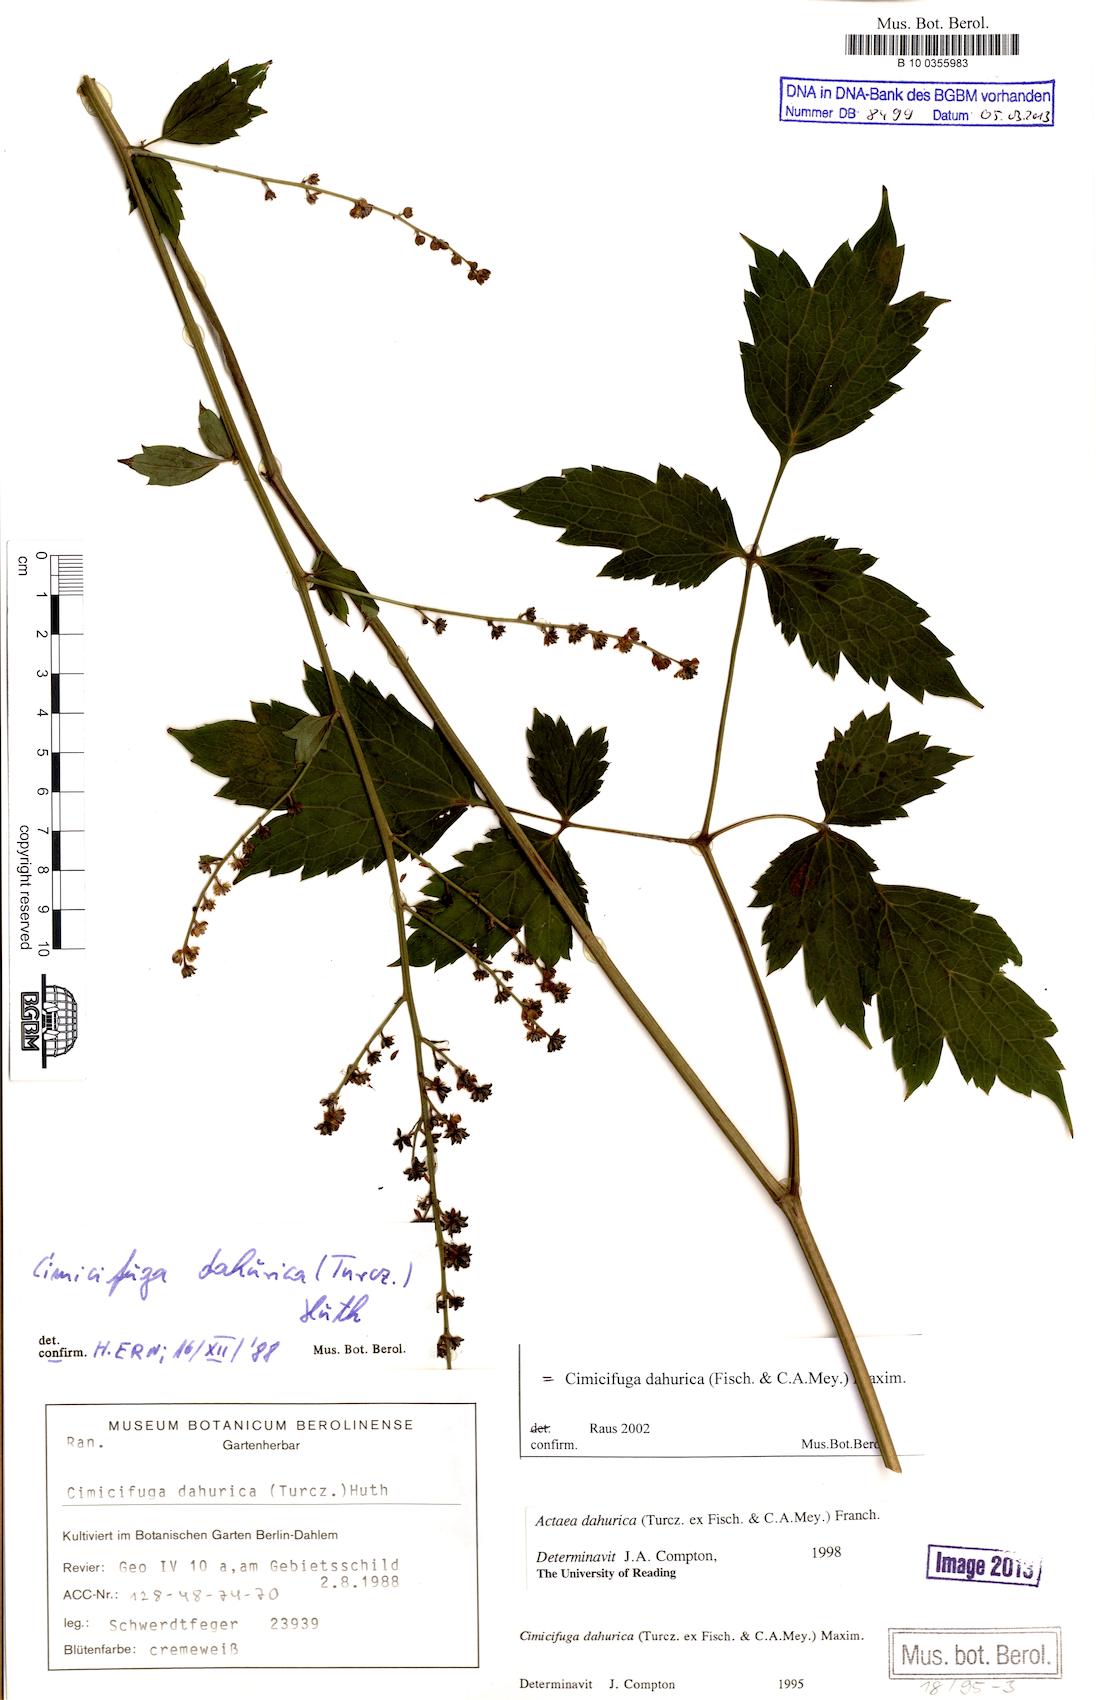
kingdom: Plantae
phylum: Tracheophyta
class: Magnoliopsida
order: Ranunculales
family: Ranunculaceae
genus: Actaea
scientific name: Actaea dahurica
